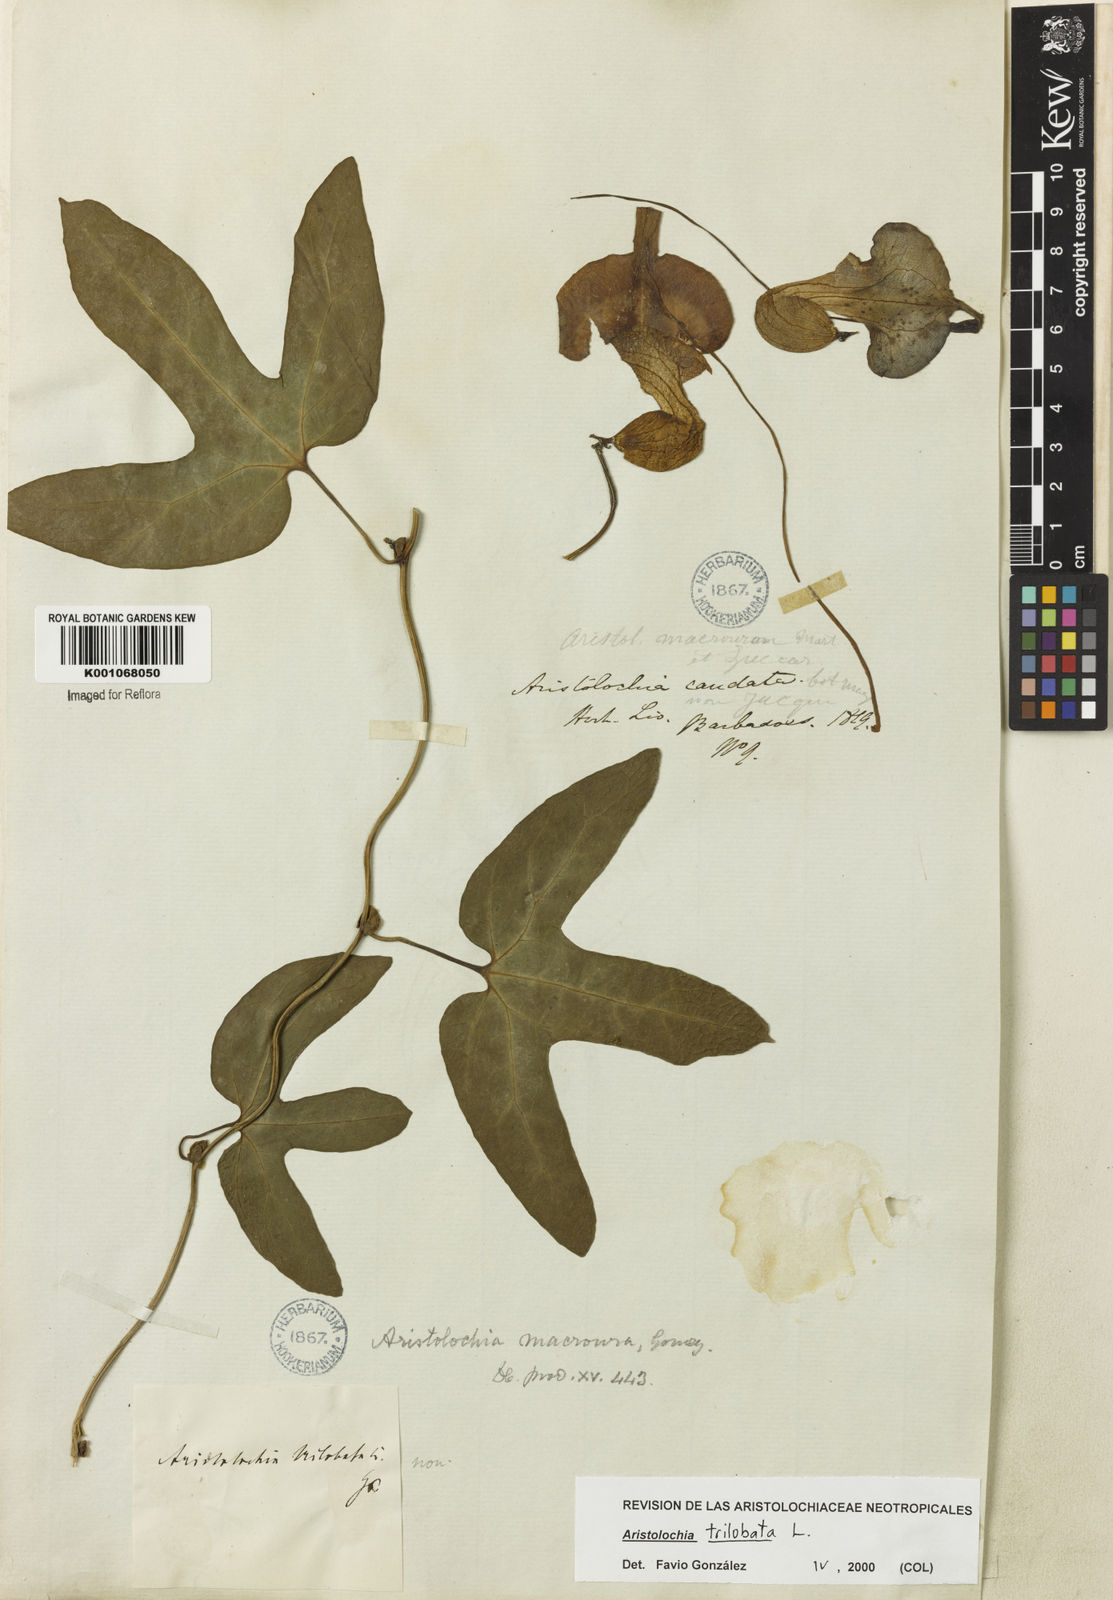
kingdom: Plantae
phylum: Tracheophyta
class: Magnoliopsida
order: Piperales
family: Aristolochiaceae
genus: Aristolochia
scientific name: Aristolochia trilobata
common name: Dutchman's pipe
